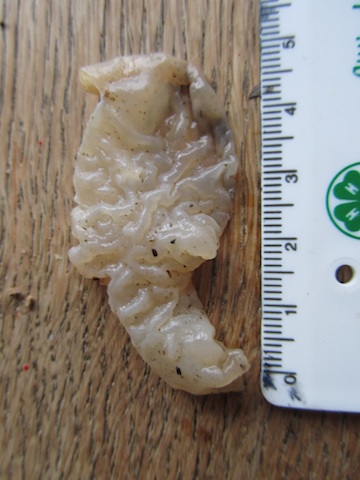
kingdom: Fungi
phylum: Basidiomycota
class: Agaricomycetes
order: Auriculariales
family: Auriculariaceae
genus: Auricularia
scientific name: Auricularia auricula-judae
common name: almindelig judasøre
